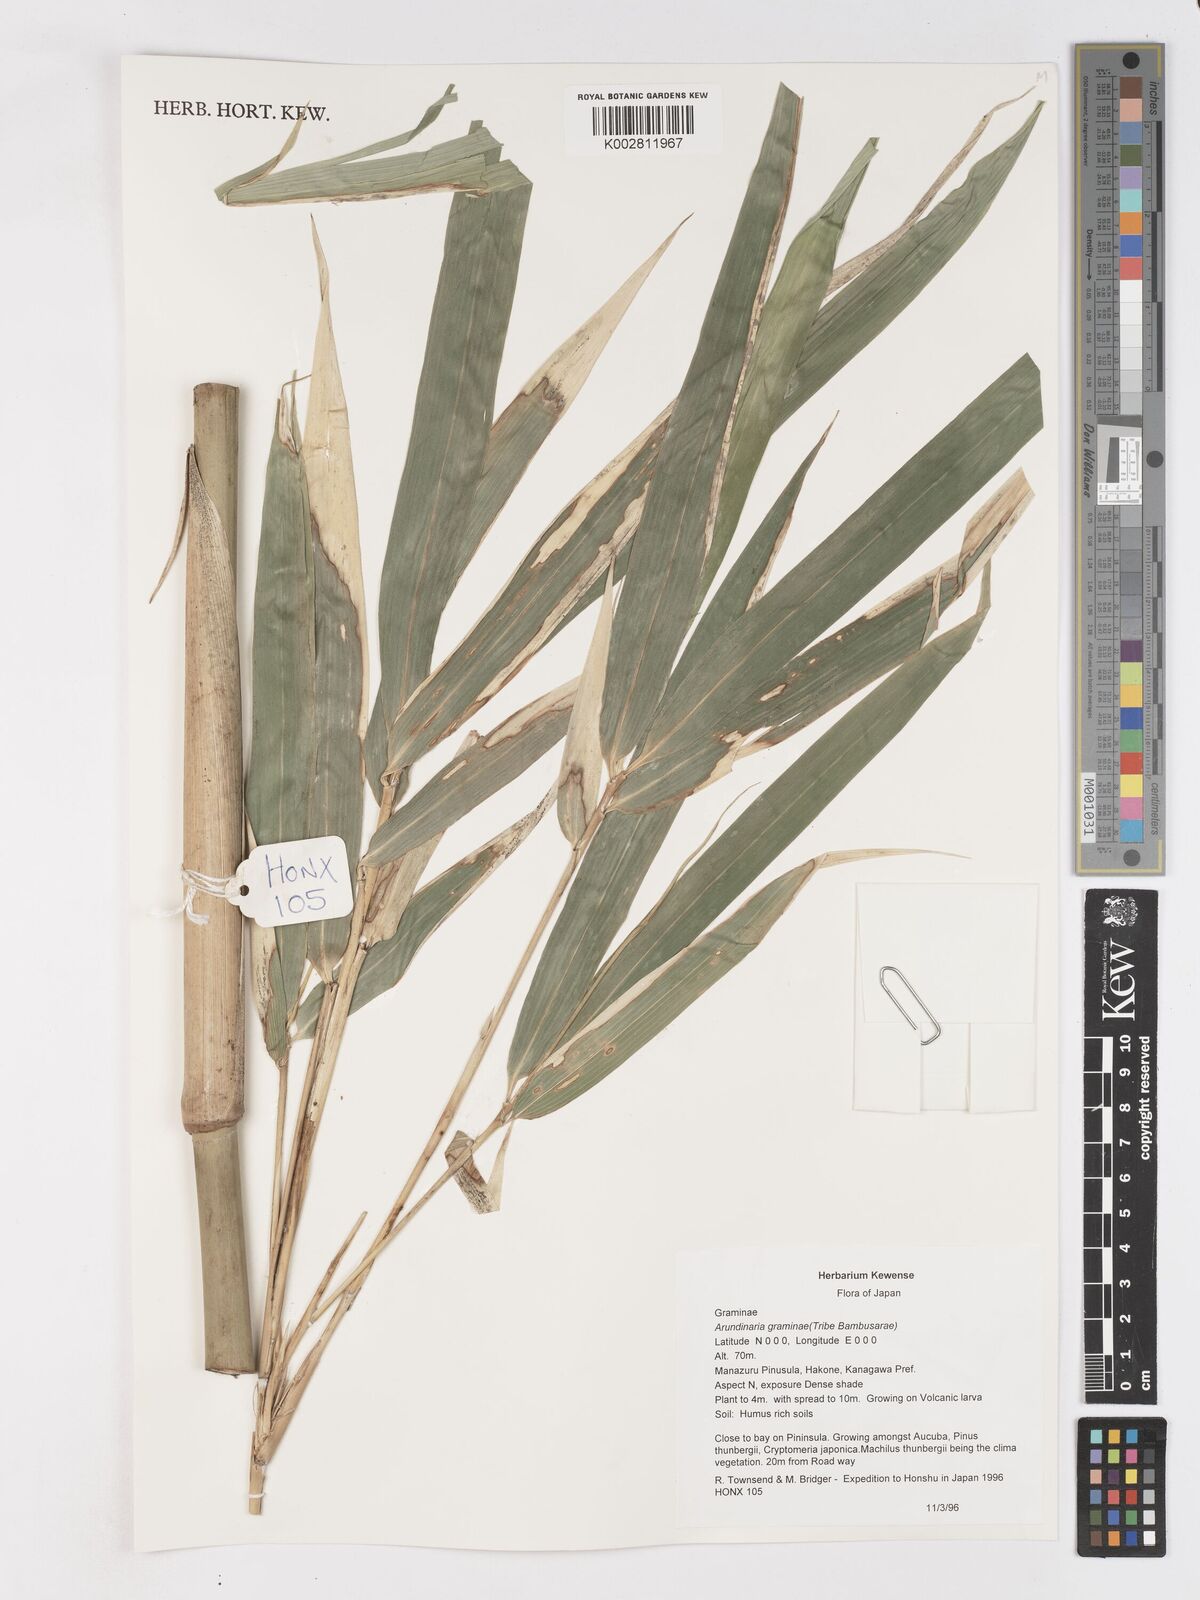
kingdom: Plantae
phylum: Tracheophyta
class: Liliopsida
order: Poales
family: Poaceae
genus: Pleioblastus
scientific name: Pleioblastus gramineus
